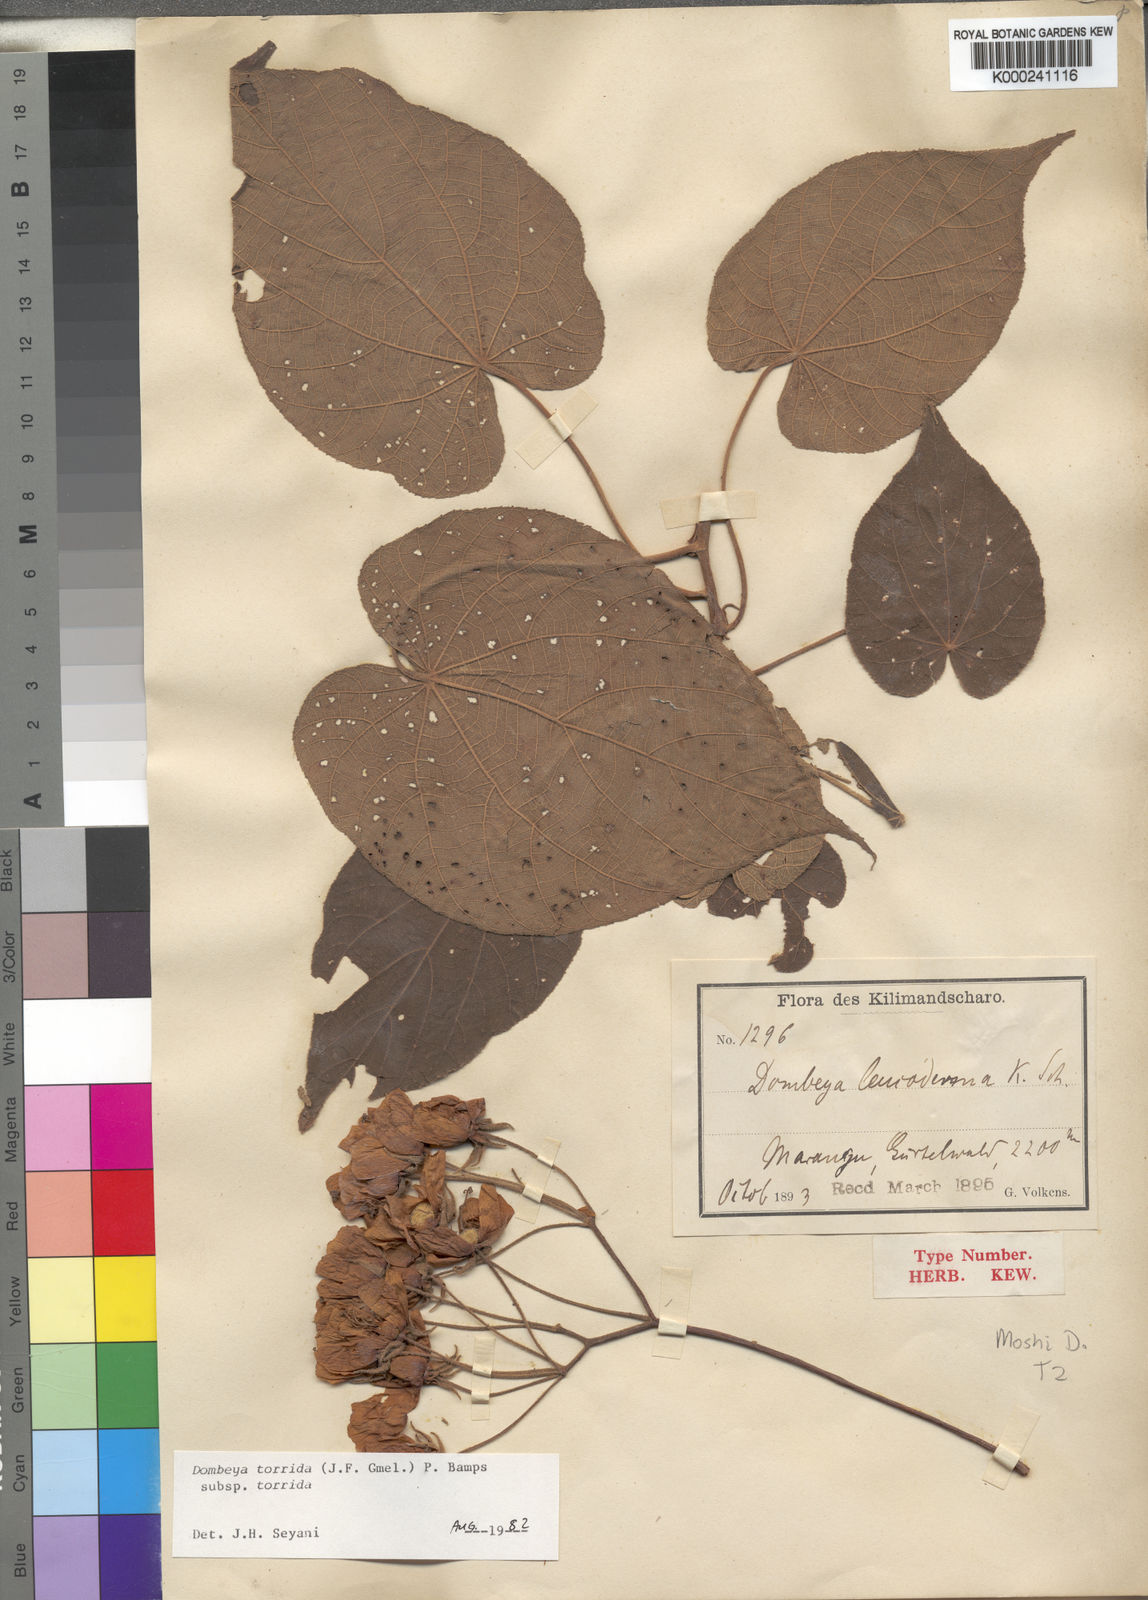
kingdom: Plantae
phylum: Tracheophyta
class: Magnoliopsida
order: Malvales
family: Malvaceae
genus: Dombeya
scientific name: Dombeya torrida
